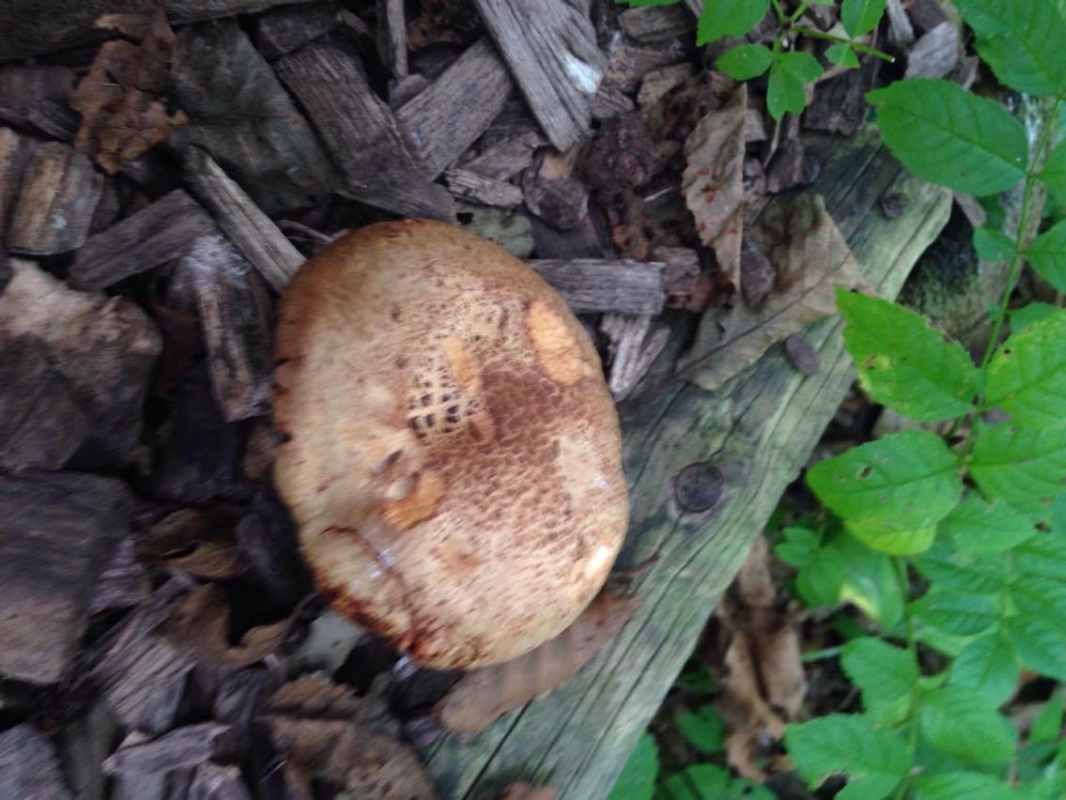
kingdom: Fungi
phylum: Basidiomycota
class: Agaricomycetes
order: Boletales
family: Paxillaceae
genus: Paxillus
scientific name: Paxillus rubicundulus
